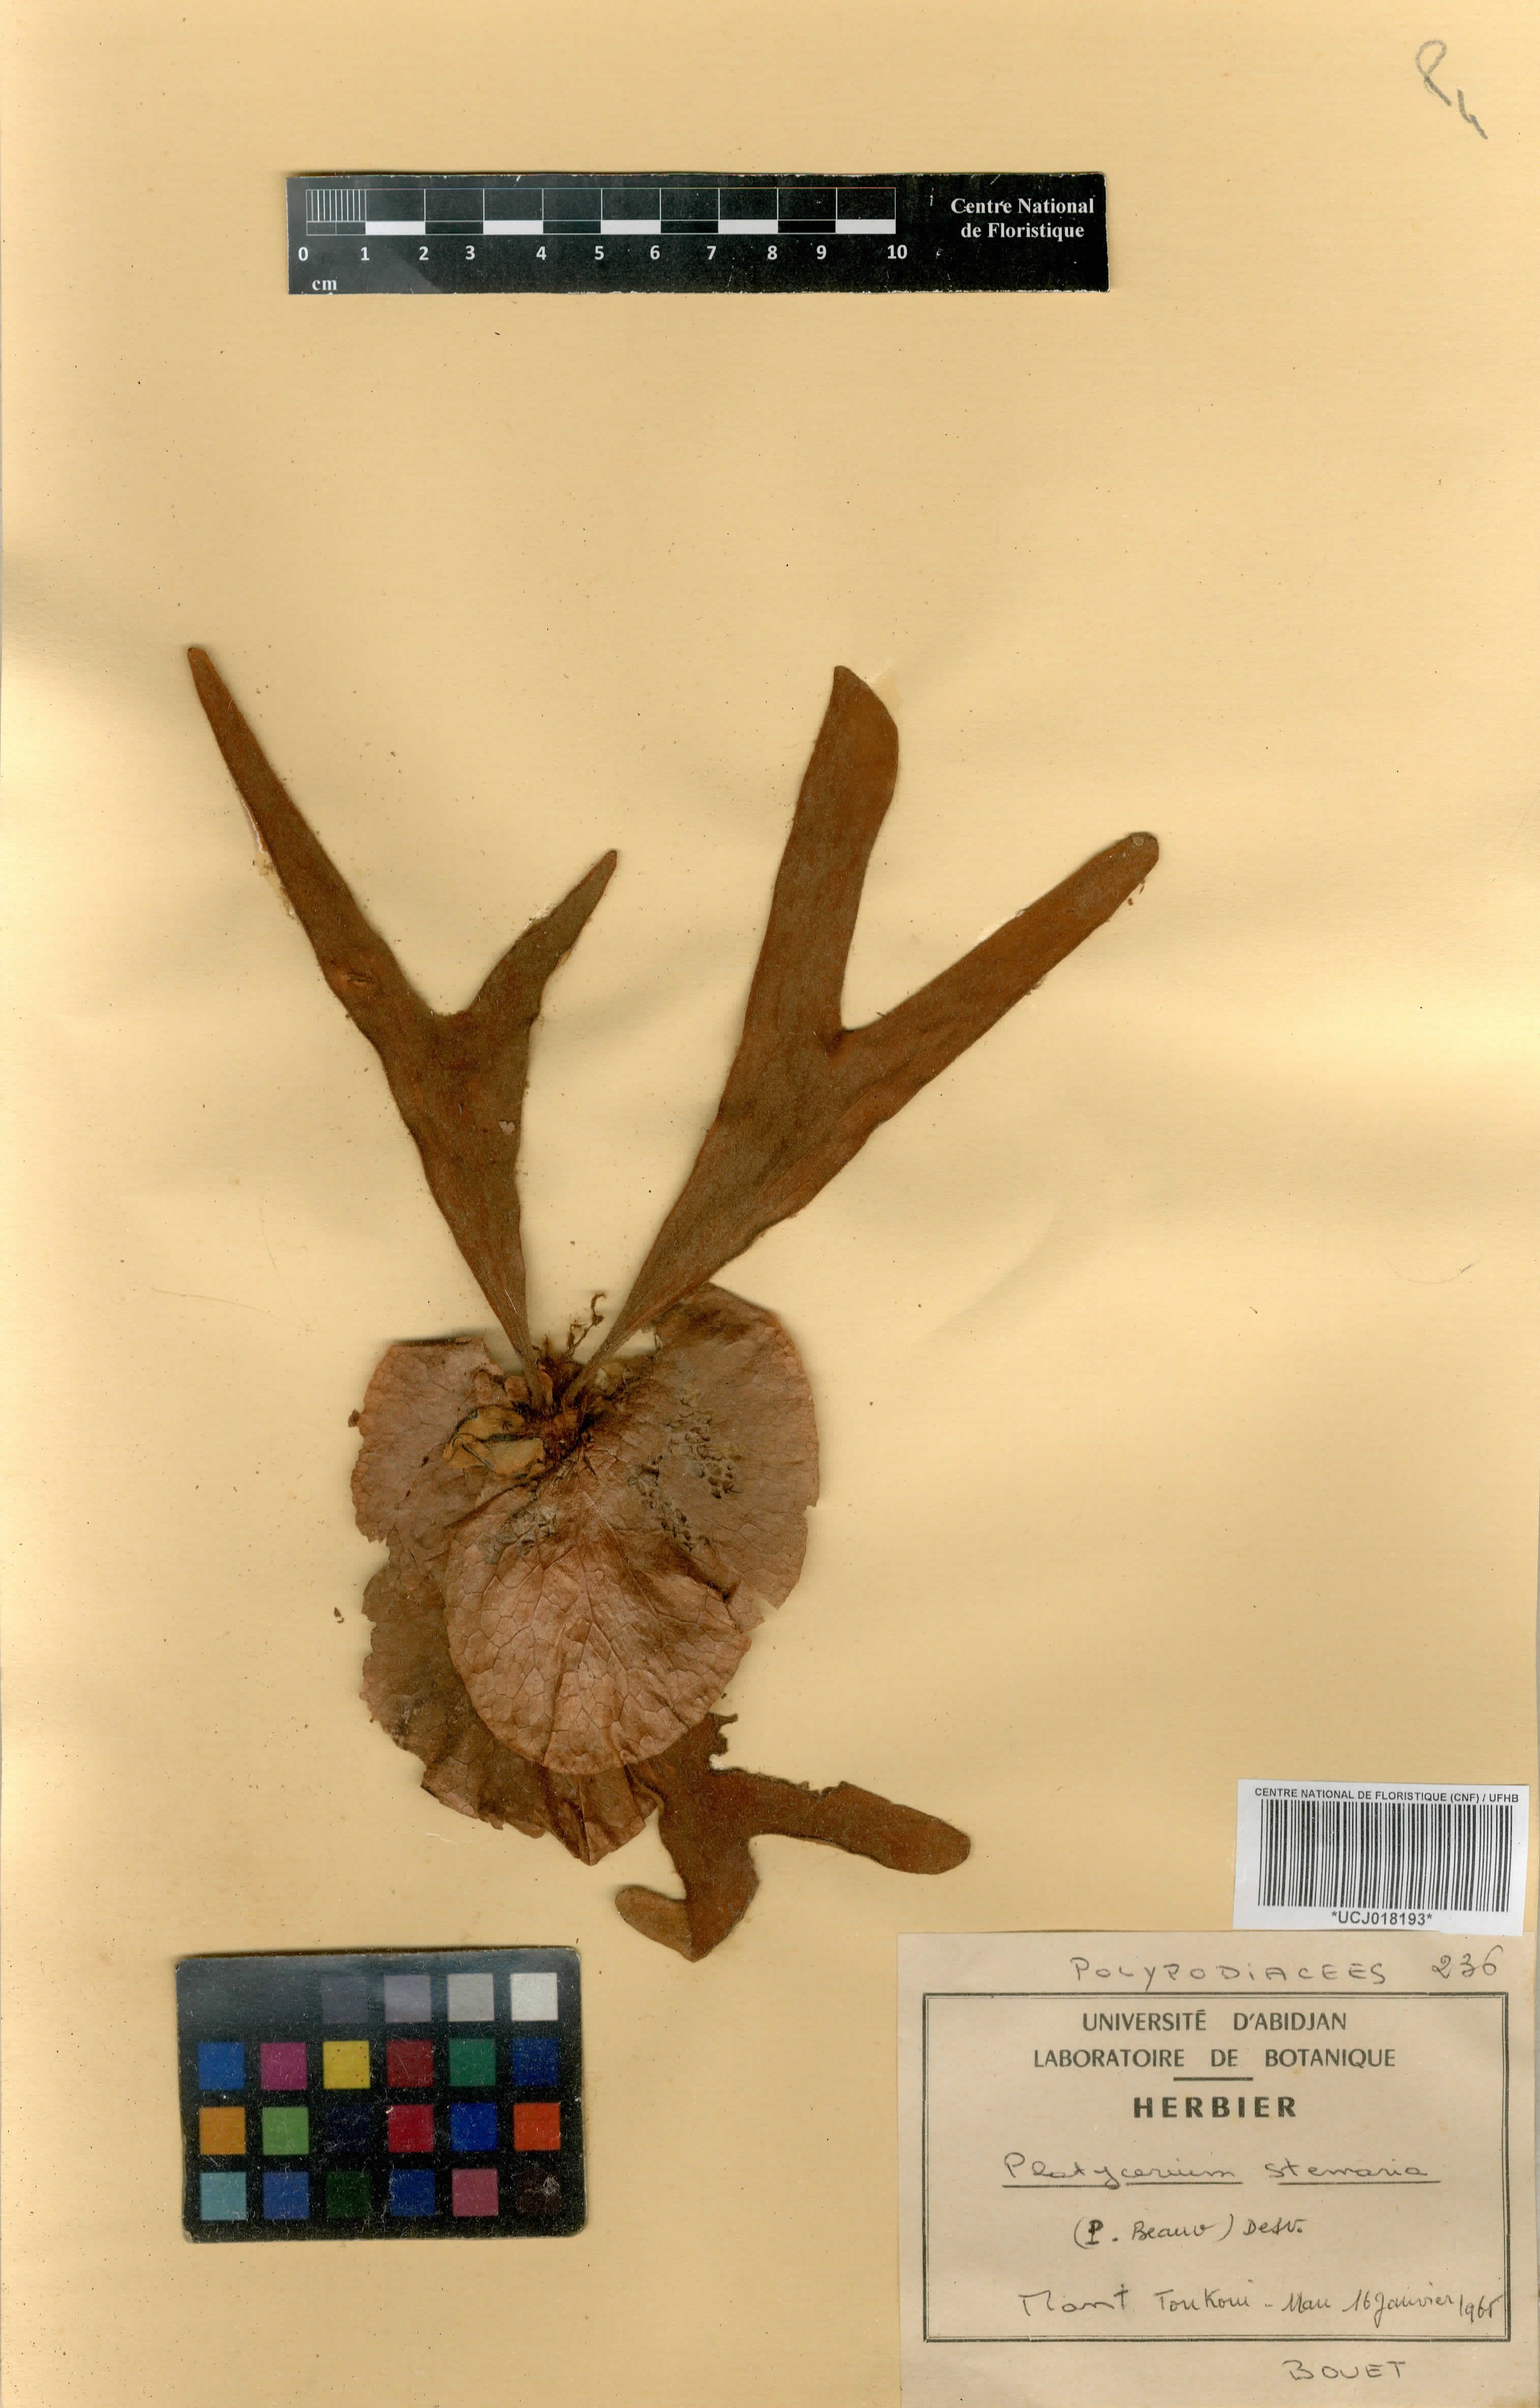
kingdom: Plantae
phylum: Tracheophyta
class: Polypodiopsida
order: Polypodiales
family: Polypodiaceae
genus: Platycerium
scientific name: Platycerium stemaria
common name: Triangular staghorn fern
